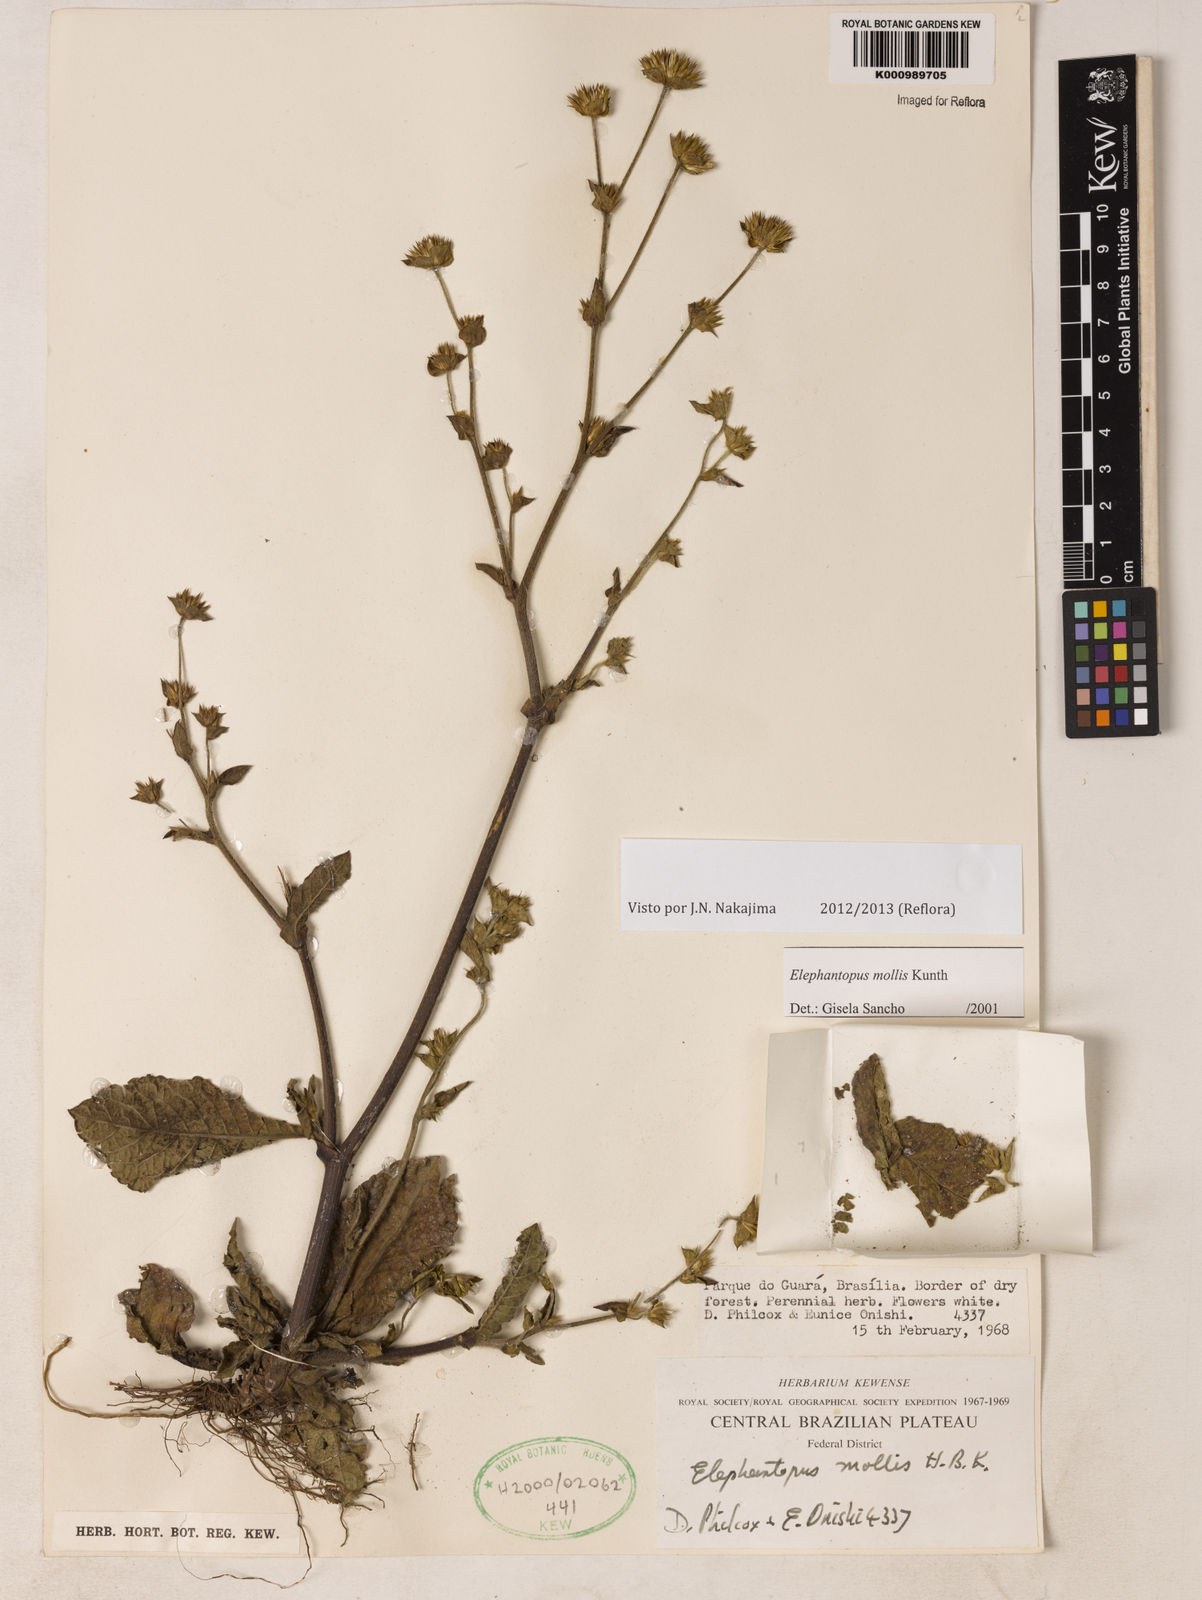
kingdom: Plantae
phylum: Tracheophyta
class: Magnoliopsida
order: Asterales
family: Asteraceae
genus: Elephantopus
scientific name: Elephantopus mollis
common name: Soft elephantsfoot
